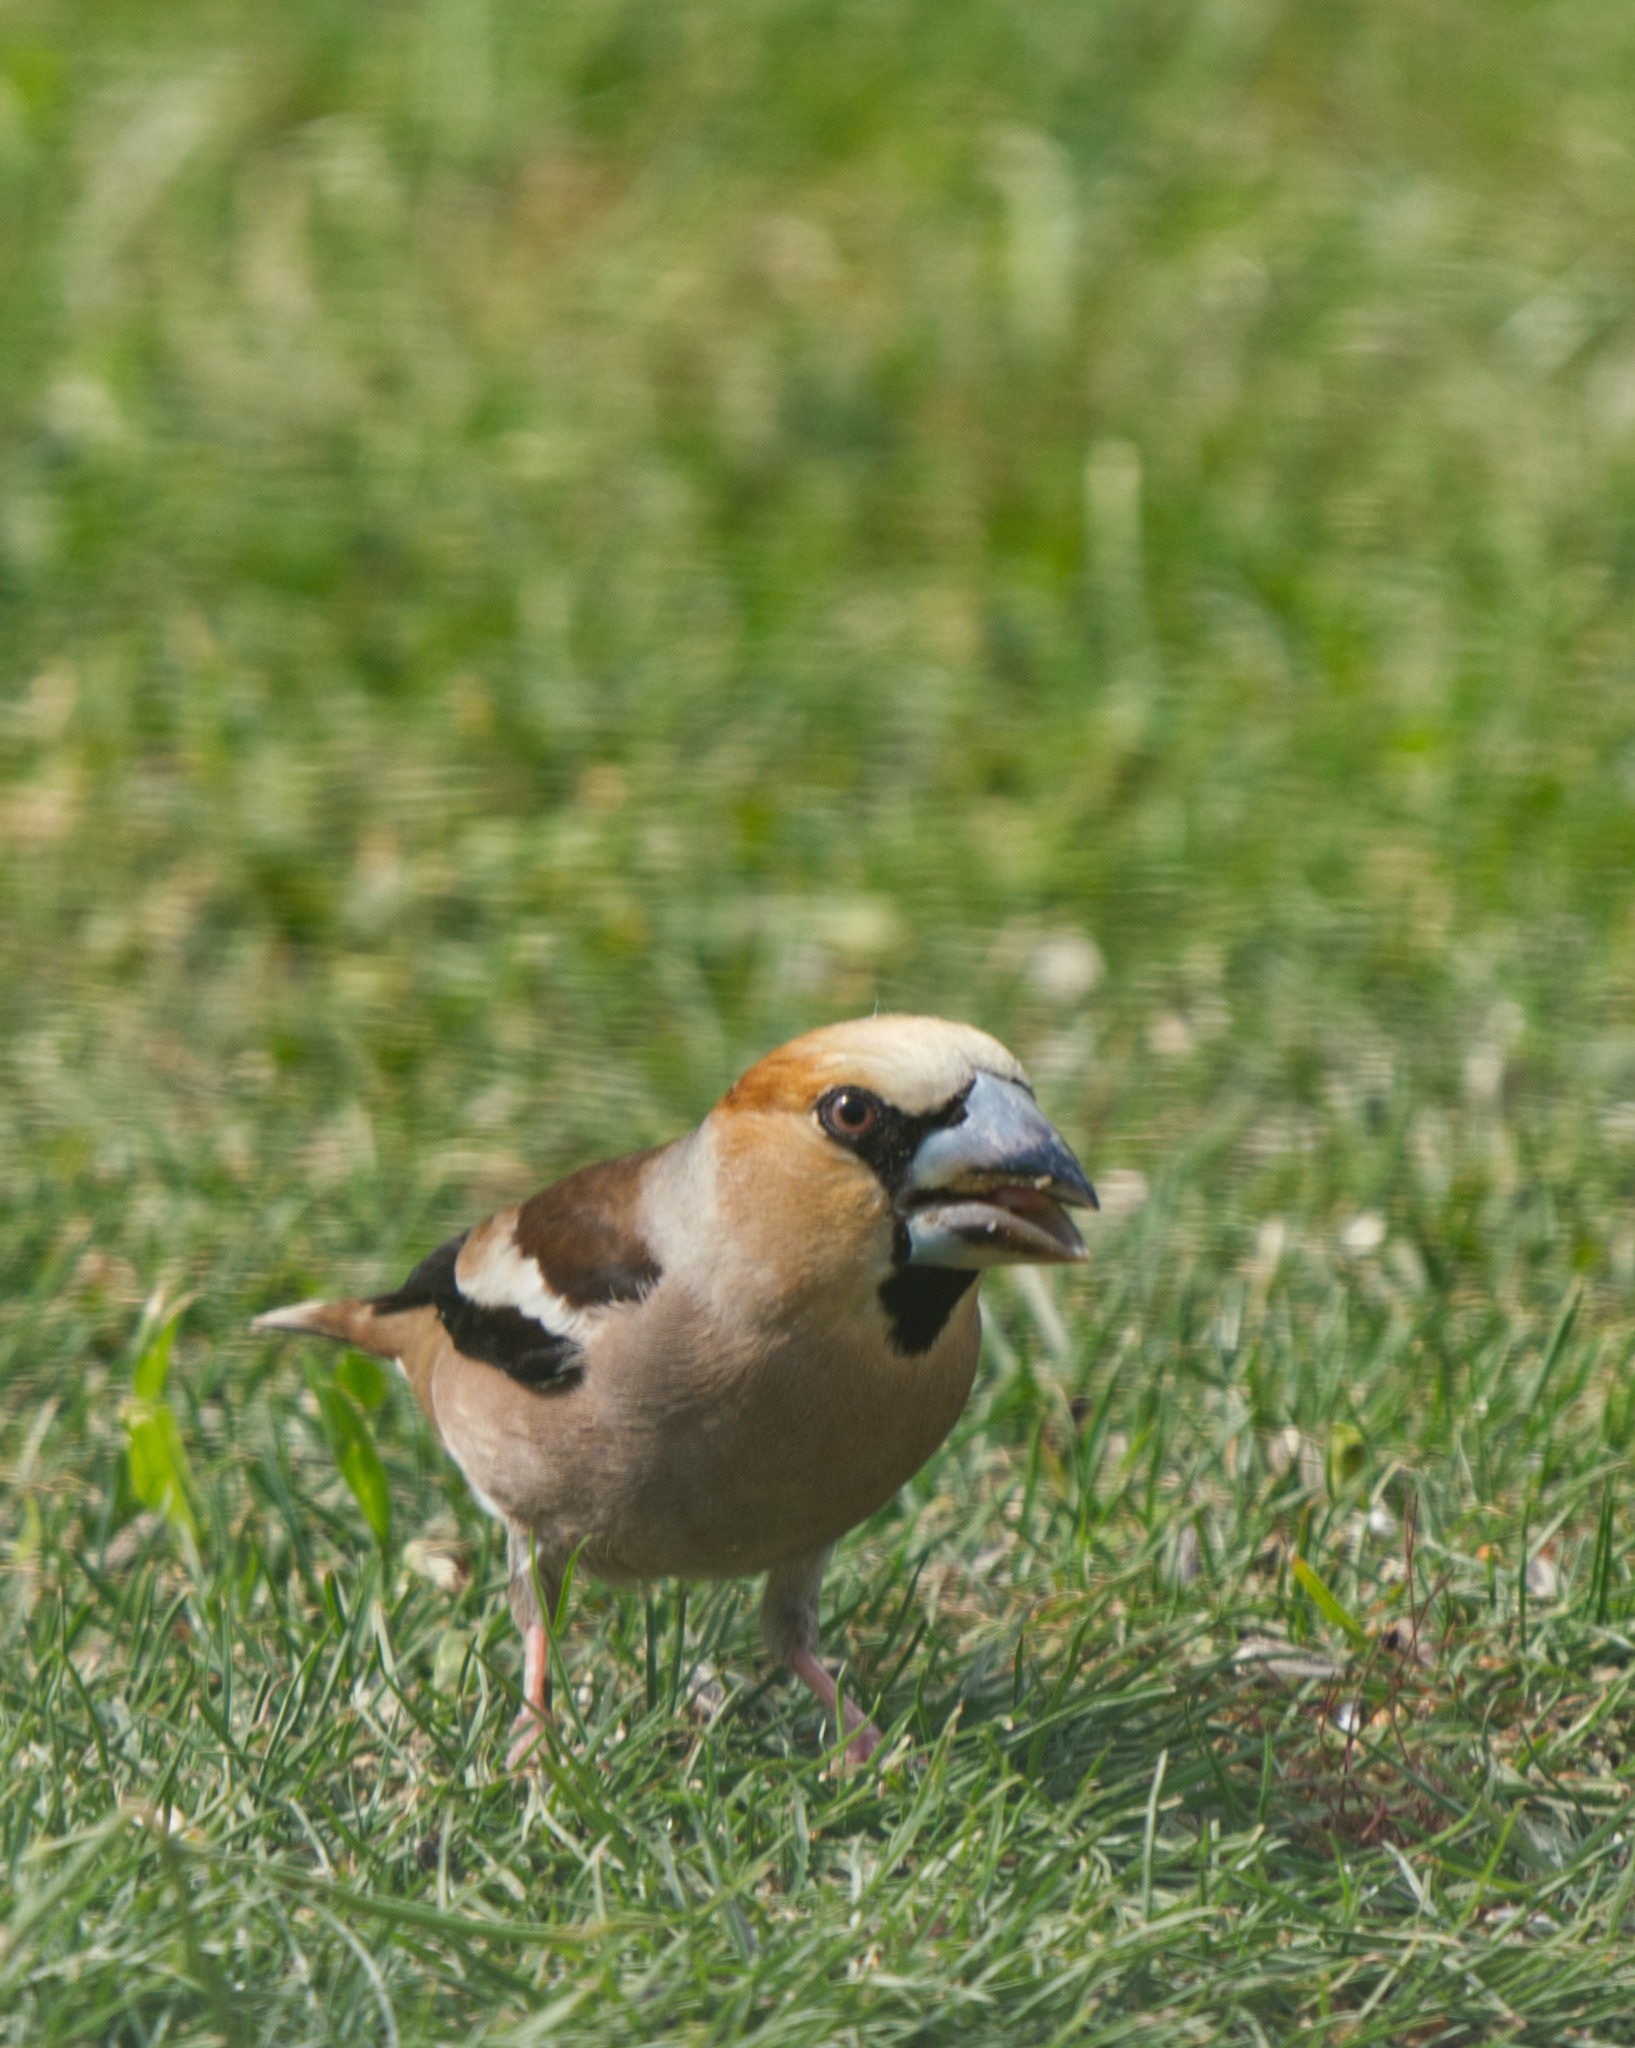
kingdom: Animalia
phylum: Chordata
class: Aves
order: Passeriformes
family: Fringillidae
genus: Coccothraustes
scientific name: Coccothraustes coccothraustes
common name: Kernebider
